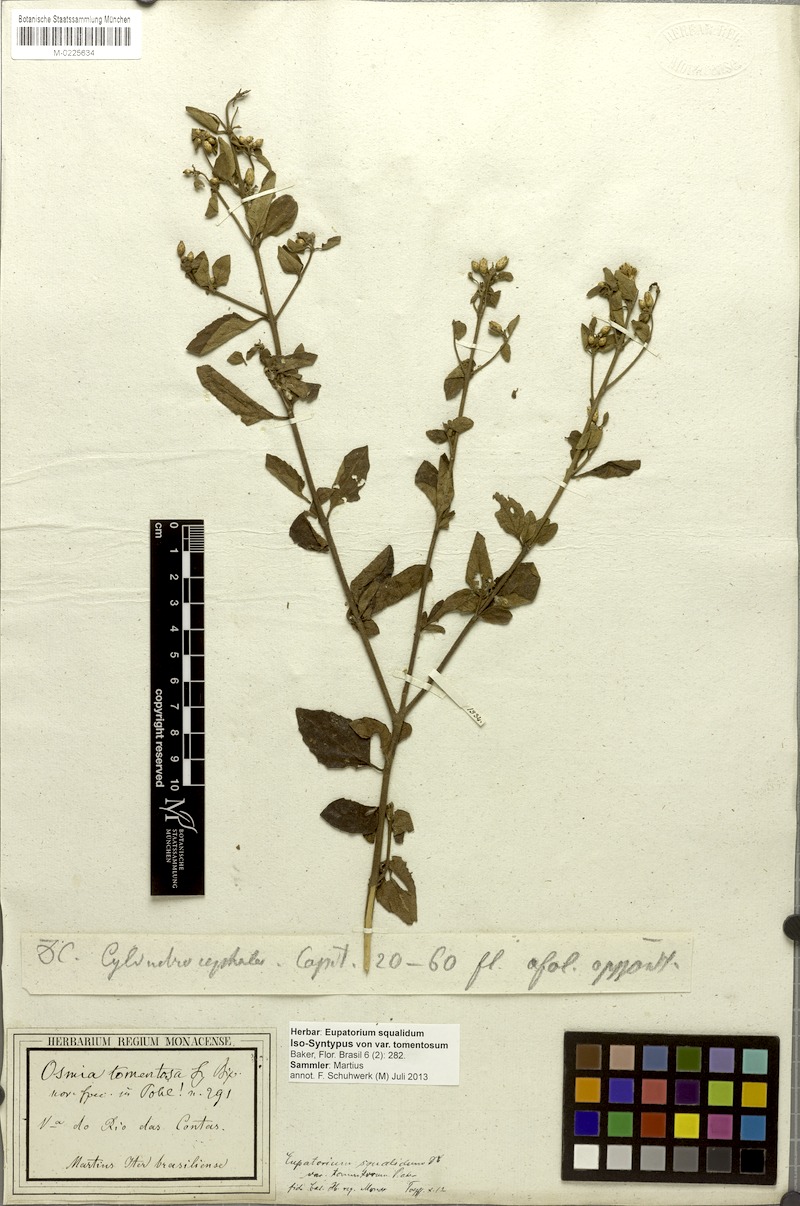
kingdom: Plantae
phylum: Tracheophyta
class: Magnoliopsida
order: Asterales
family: Asteraceae
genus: Chromolaena
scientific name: Chromolaena squalida
